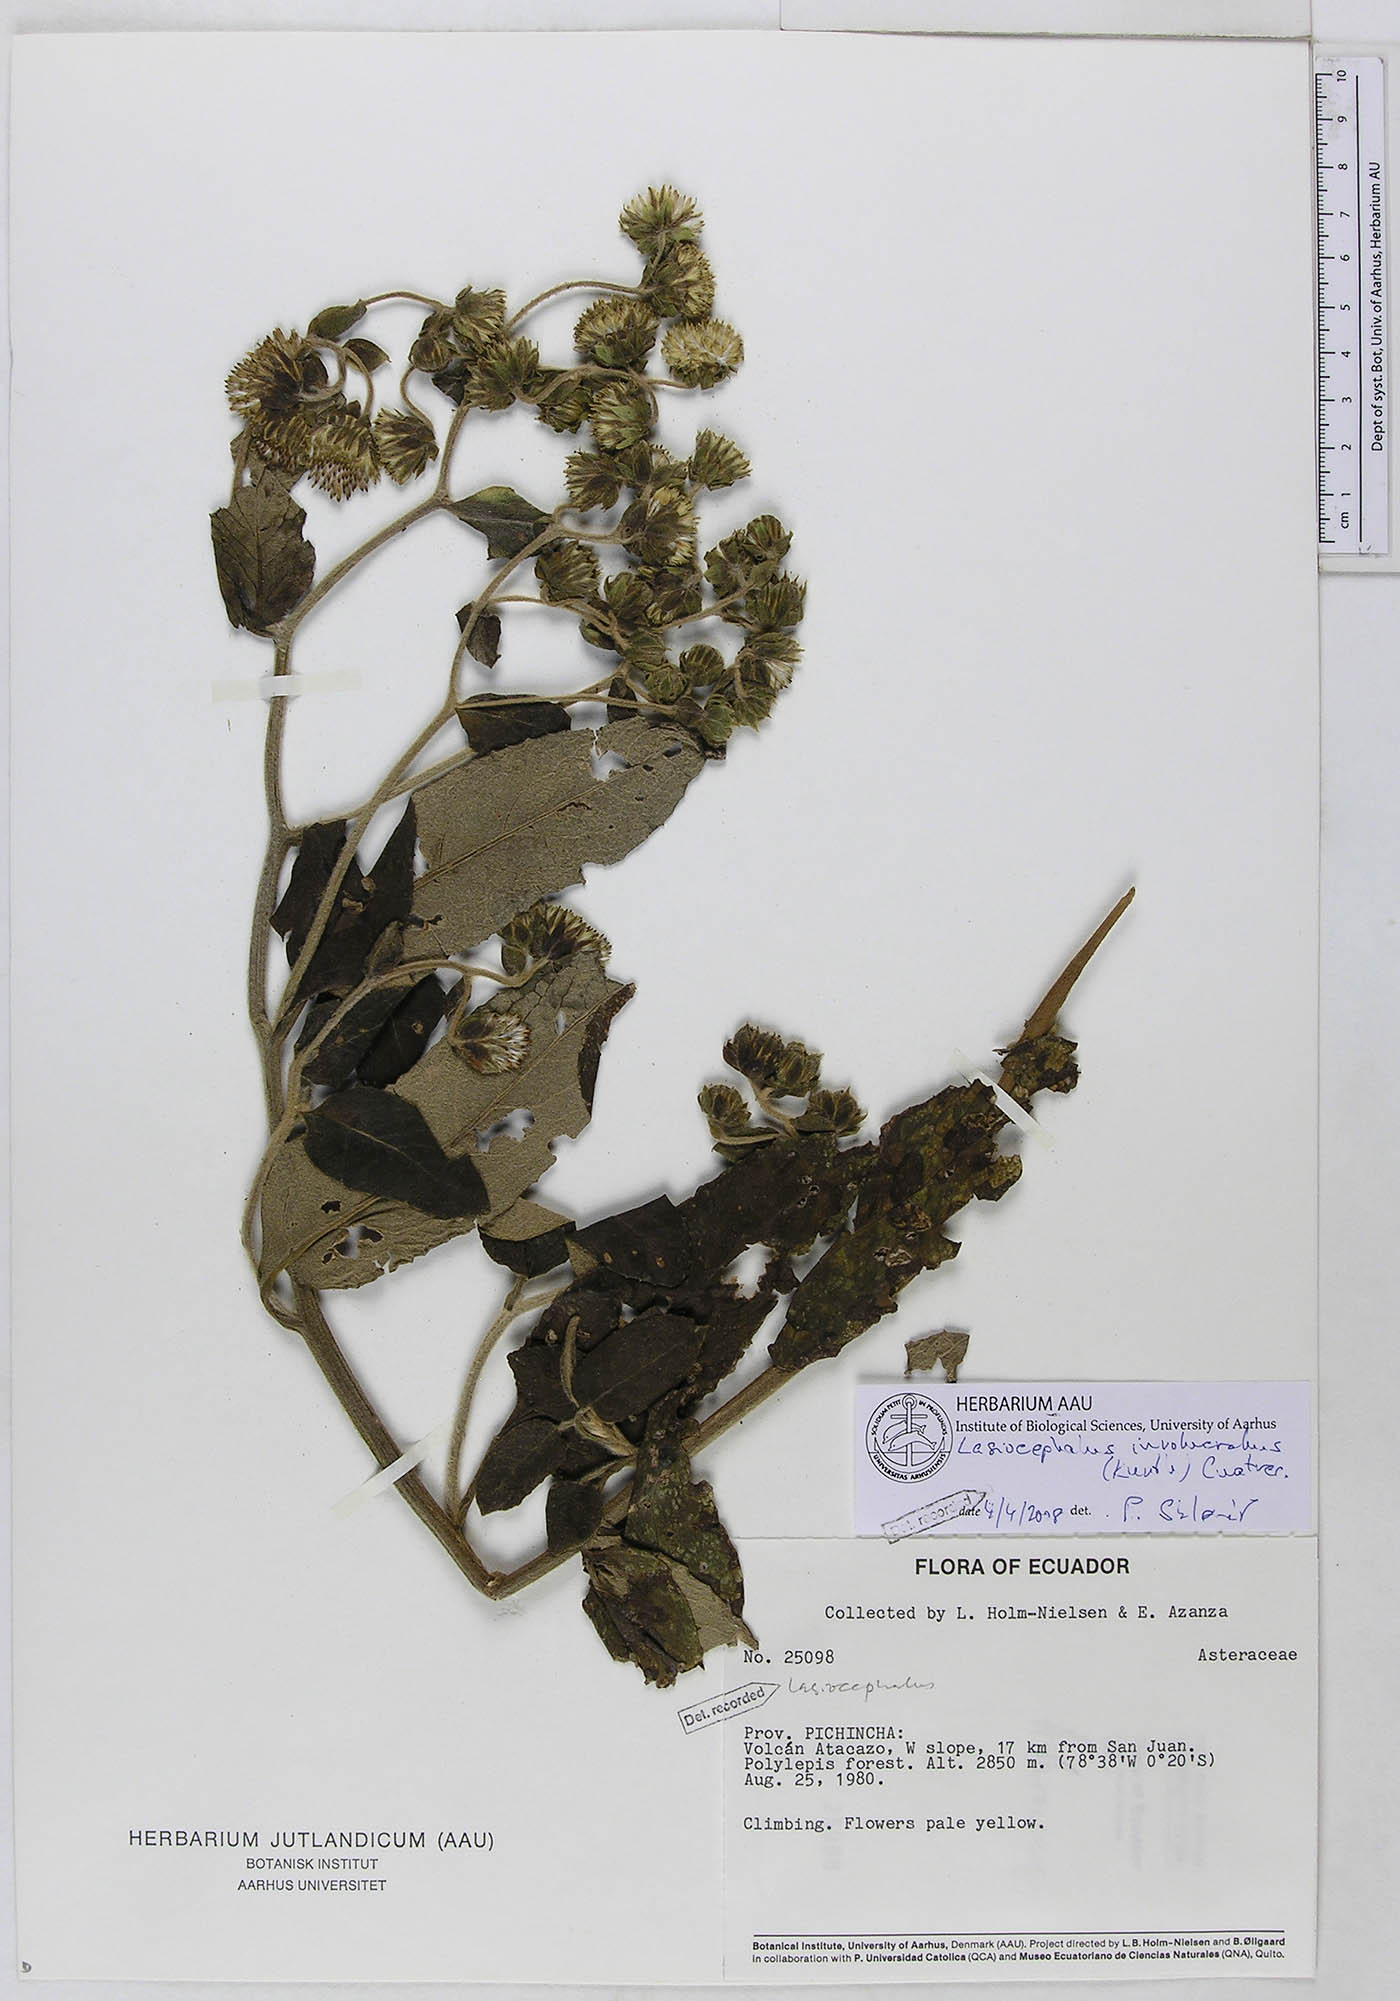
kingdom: Plantae
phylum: Tracheophyta
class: Magnoliopsida
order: Asterales
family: Asteraceae
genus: Aetheolaena
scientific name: Aetheolaena involucrata
